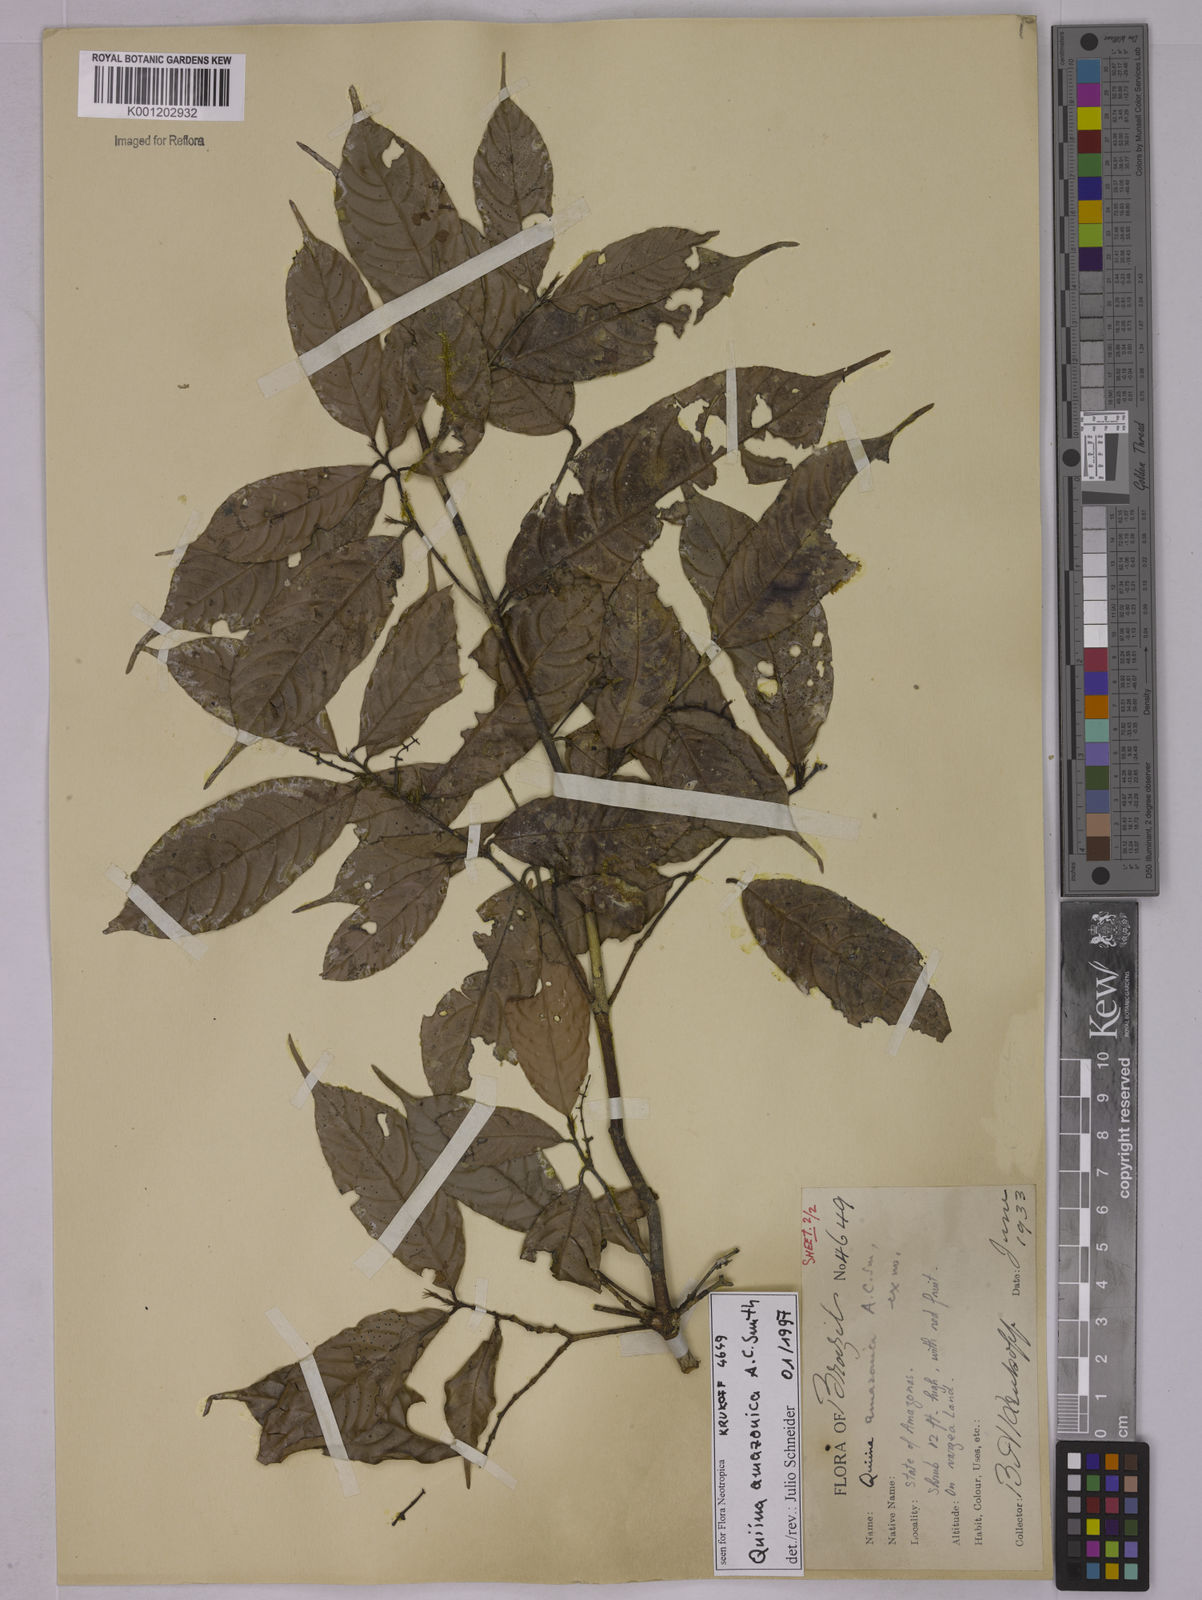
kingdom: Plantae
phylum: Tracheophyta
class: Magnoliopsida
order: Malpighiales
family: Quiinaceae
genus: Quiina
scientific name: Quiina amazonica
